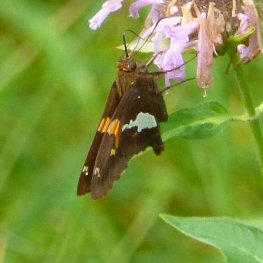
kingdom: Animalia
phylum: Arthropoda
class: Insecta
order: Lepidoptera
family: Hesperiidae
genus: Epargyreus
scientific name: Epargyreus clarus
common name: Silver-spotted Skipper
